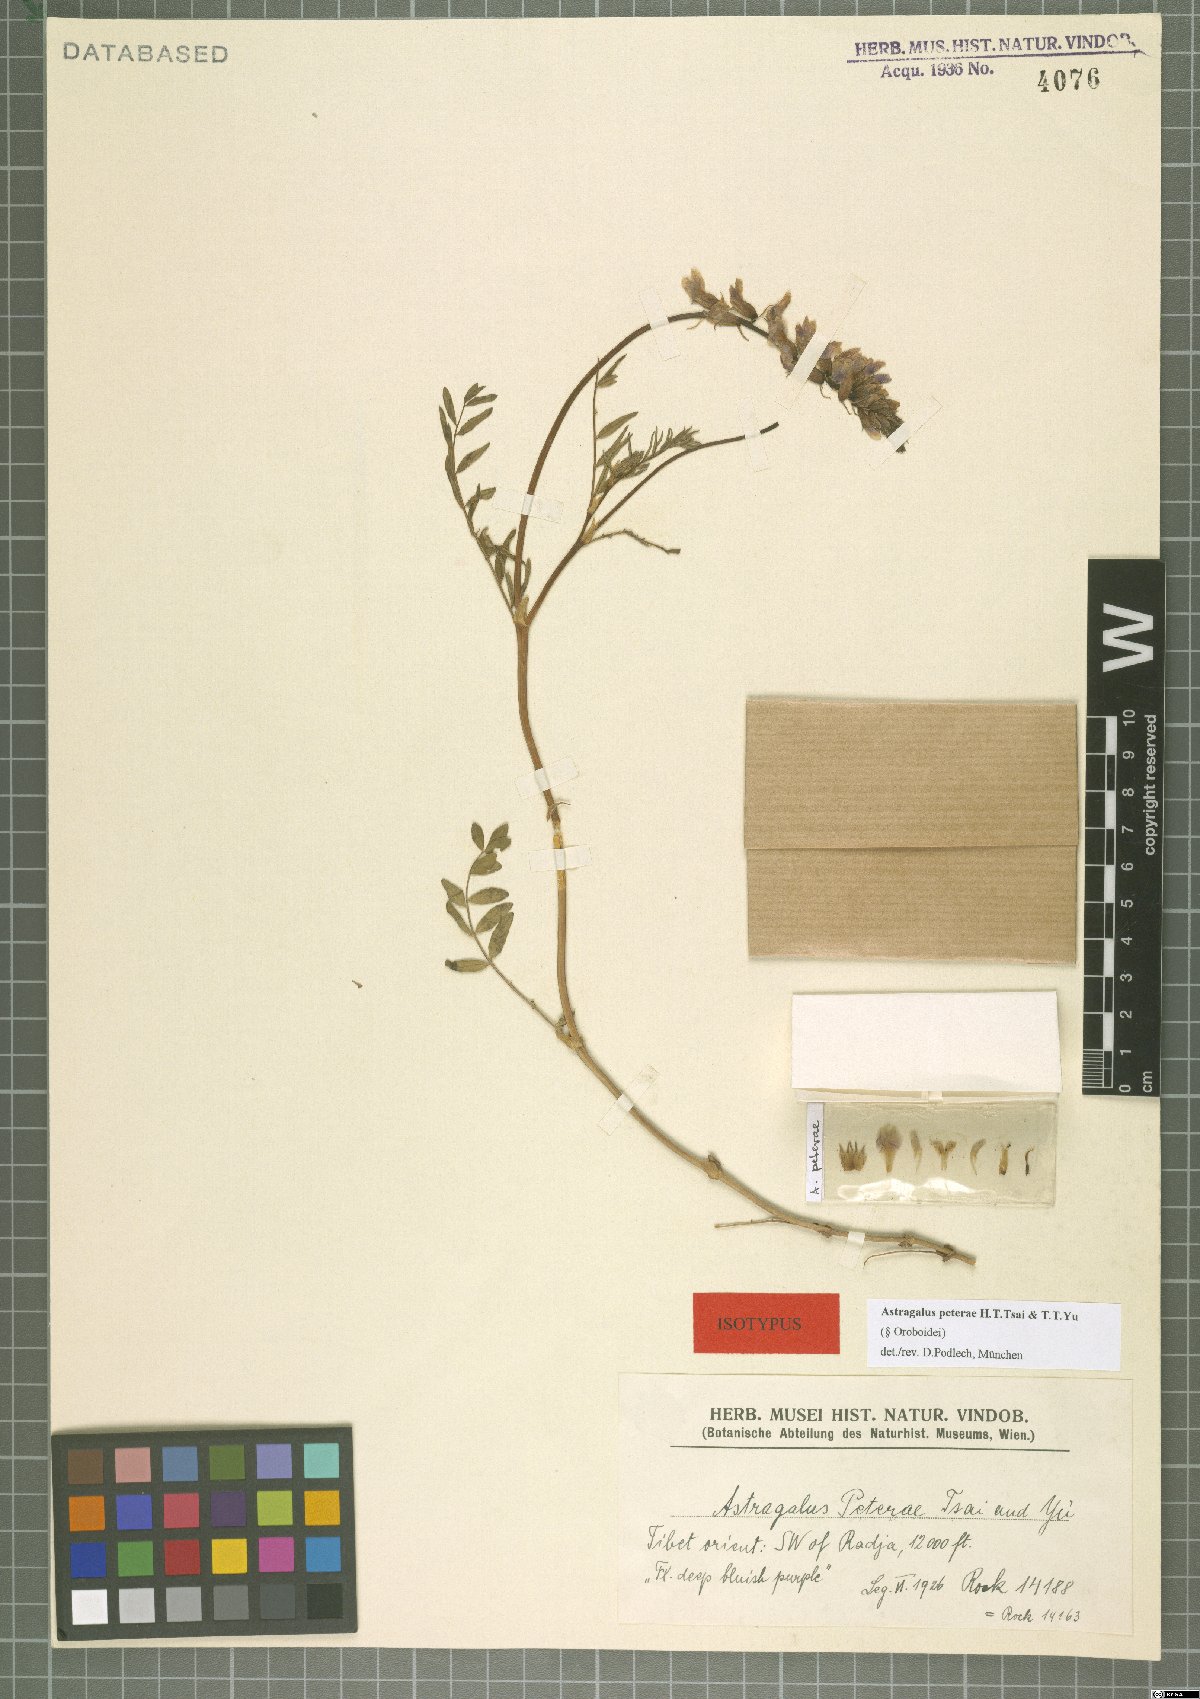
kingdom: Plantae
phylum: Tracheophyta
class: Magnoliopsida
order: Fabales
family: Fabaceae
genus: Astragalus
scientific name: Astragalus peterae
